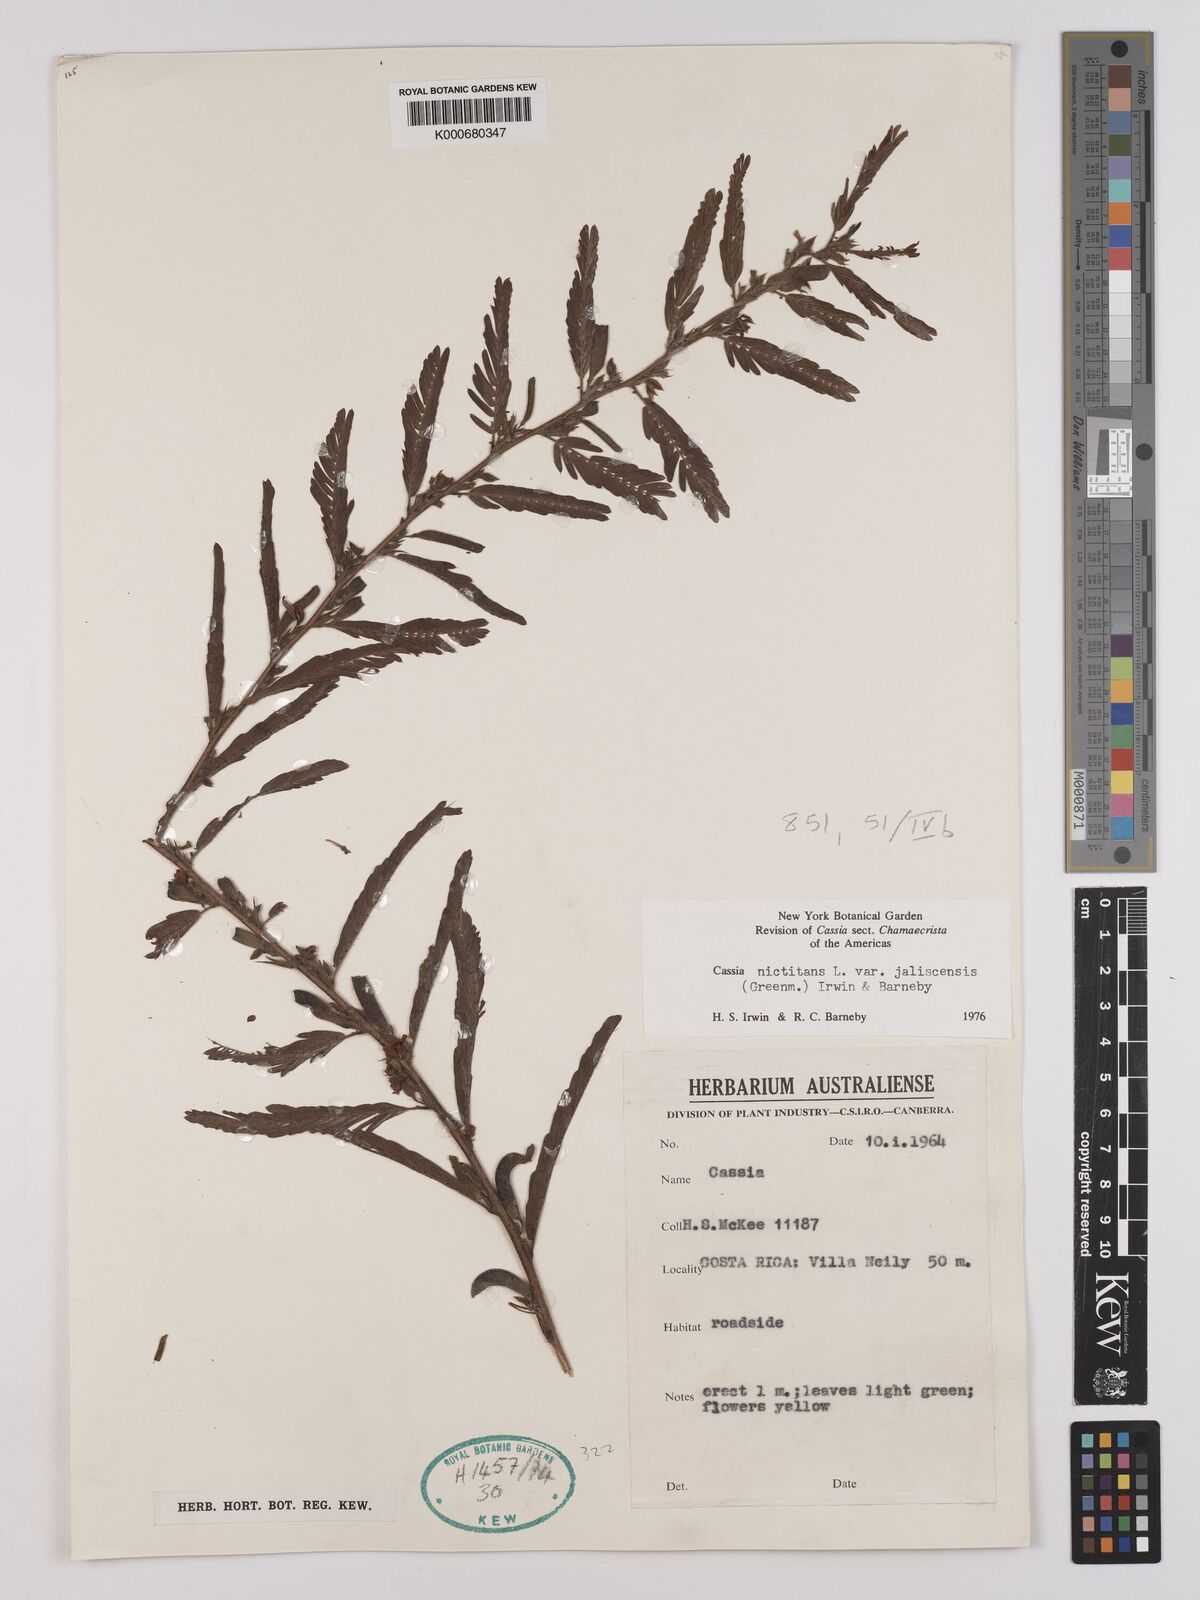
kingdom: Plantae
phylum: Tracheophyta
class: Magnoliopsida
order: Fabales
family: Fabaceae
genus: Chamaecrista
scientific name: Chamaecrista nictitans
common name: Sensitive cassia
